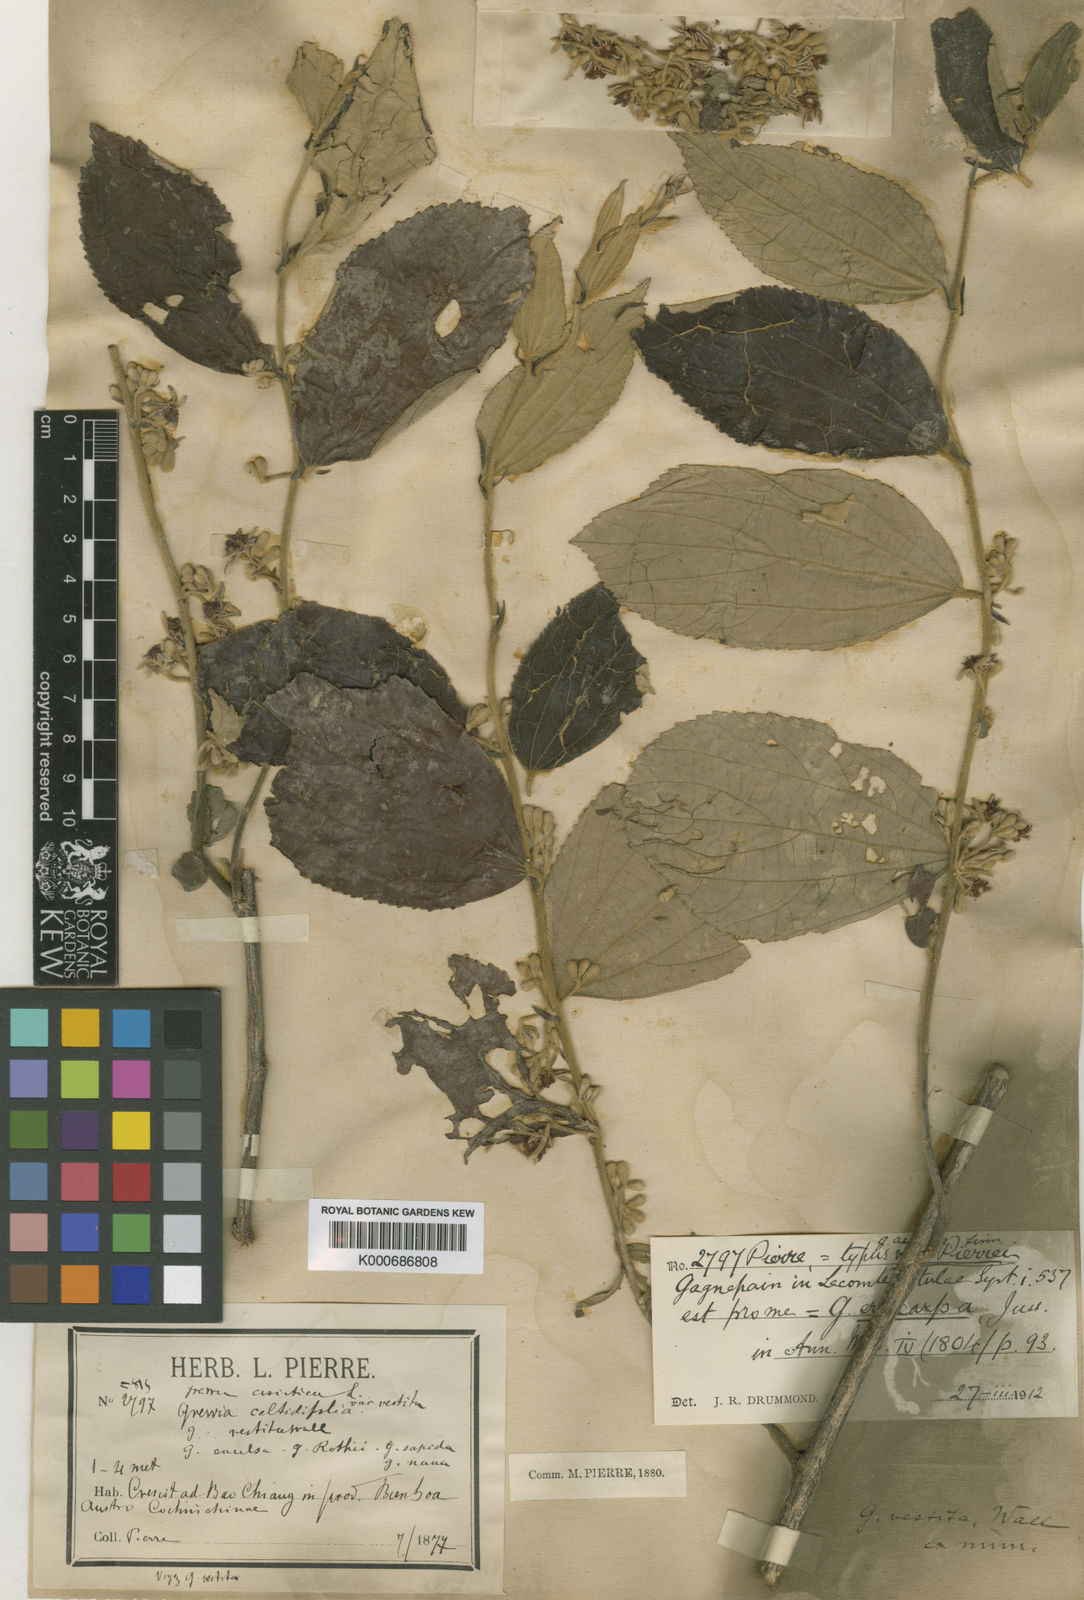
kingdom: Plantae
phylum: Tracheophyta
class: Magnoliopsida
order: Malvales
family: Malvaceae
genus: Grewia
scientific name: Grewia eriocarpa
